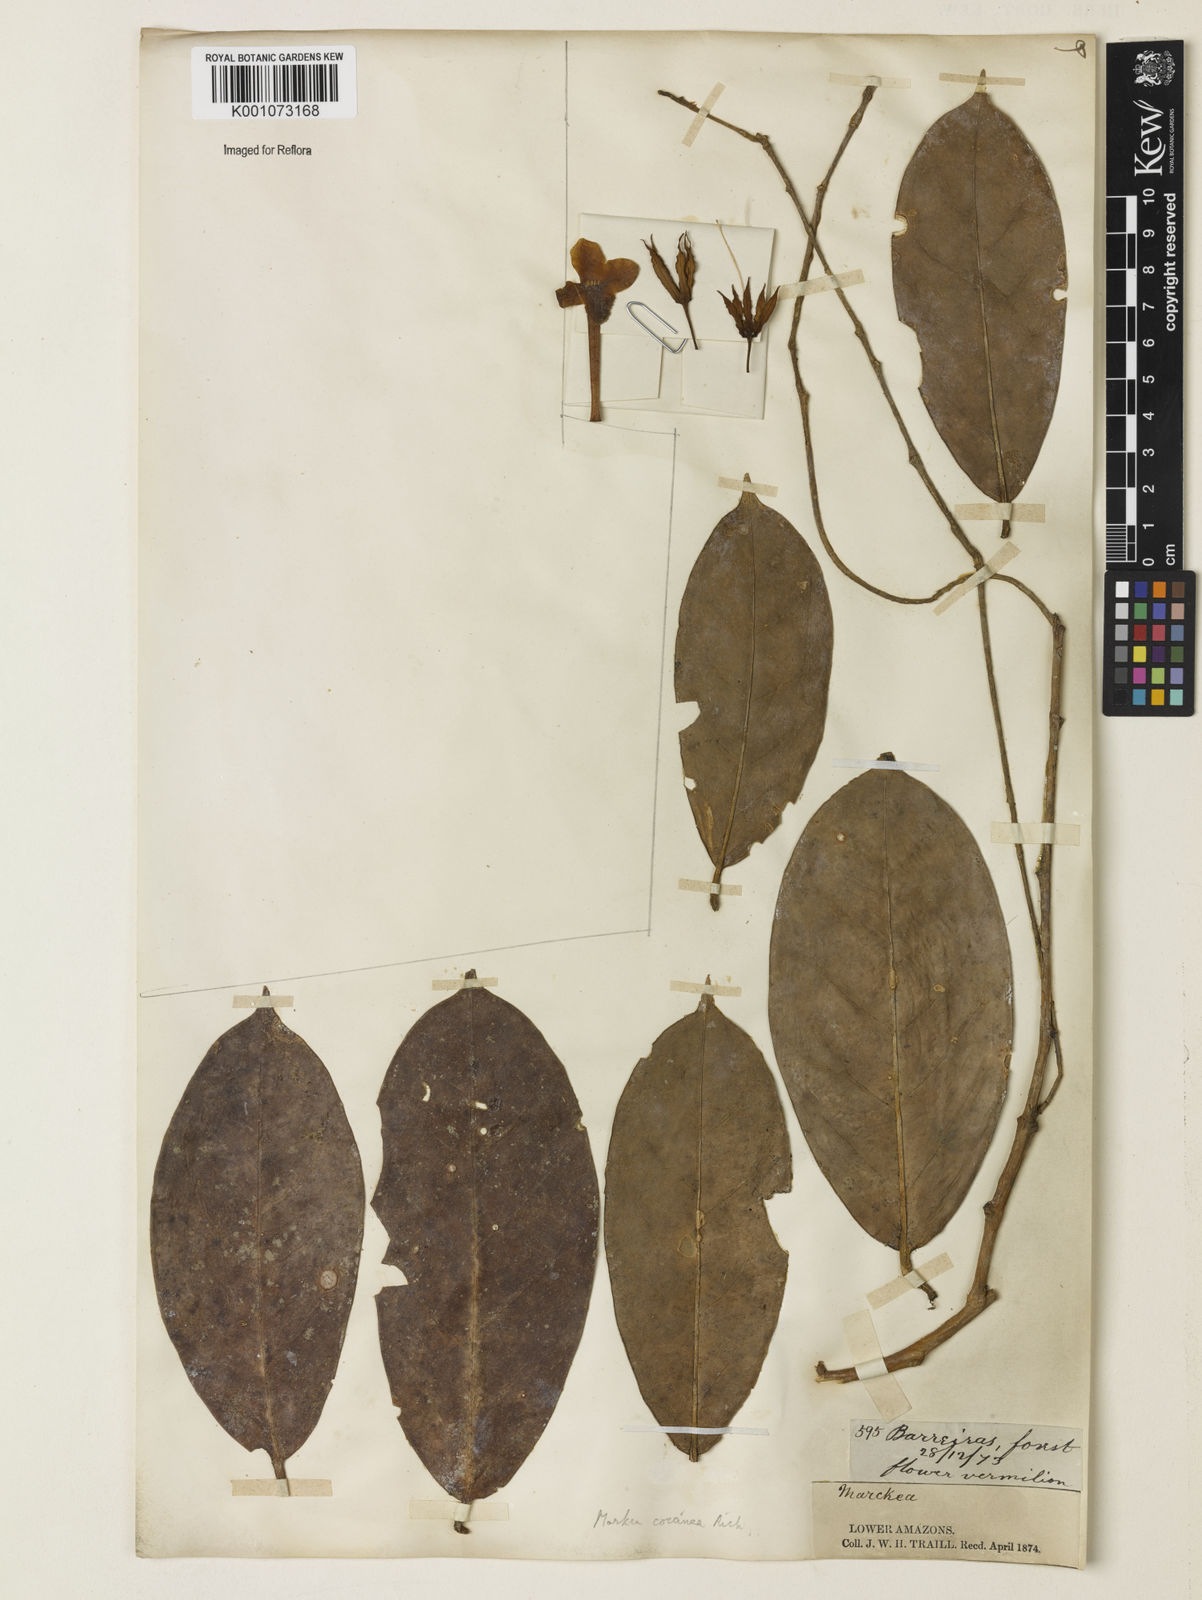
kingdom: Plantae
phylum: Tracheophyta
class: Magnoliopsida
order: Solanales
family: Solanaceae
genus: Markea
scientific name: Markea coccinea
